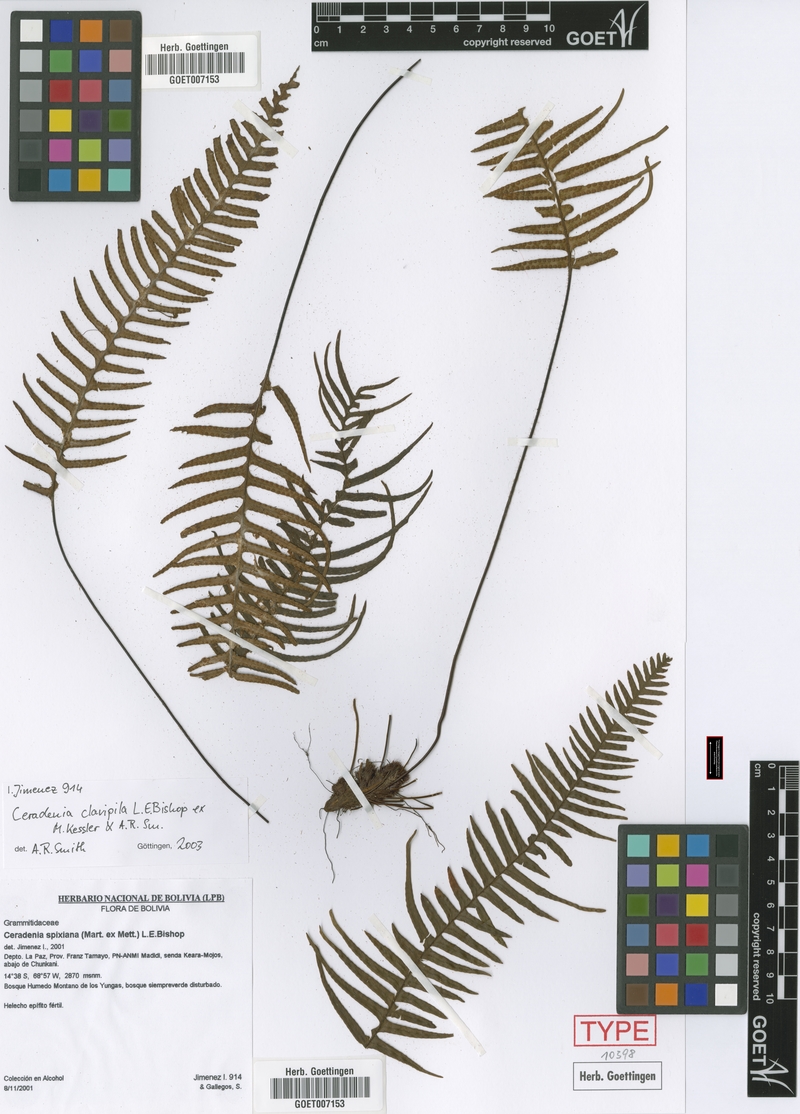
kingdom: Plantae
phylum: Tracheophyta
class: Polypodiopsida
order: Polypodiales
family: Polypodiaceae
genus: Ceradenia
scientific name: Ceradenia clavipila
